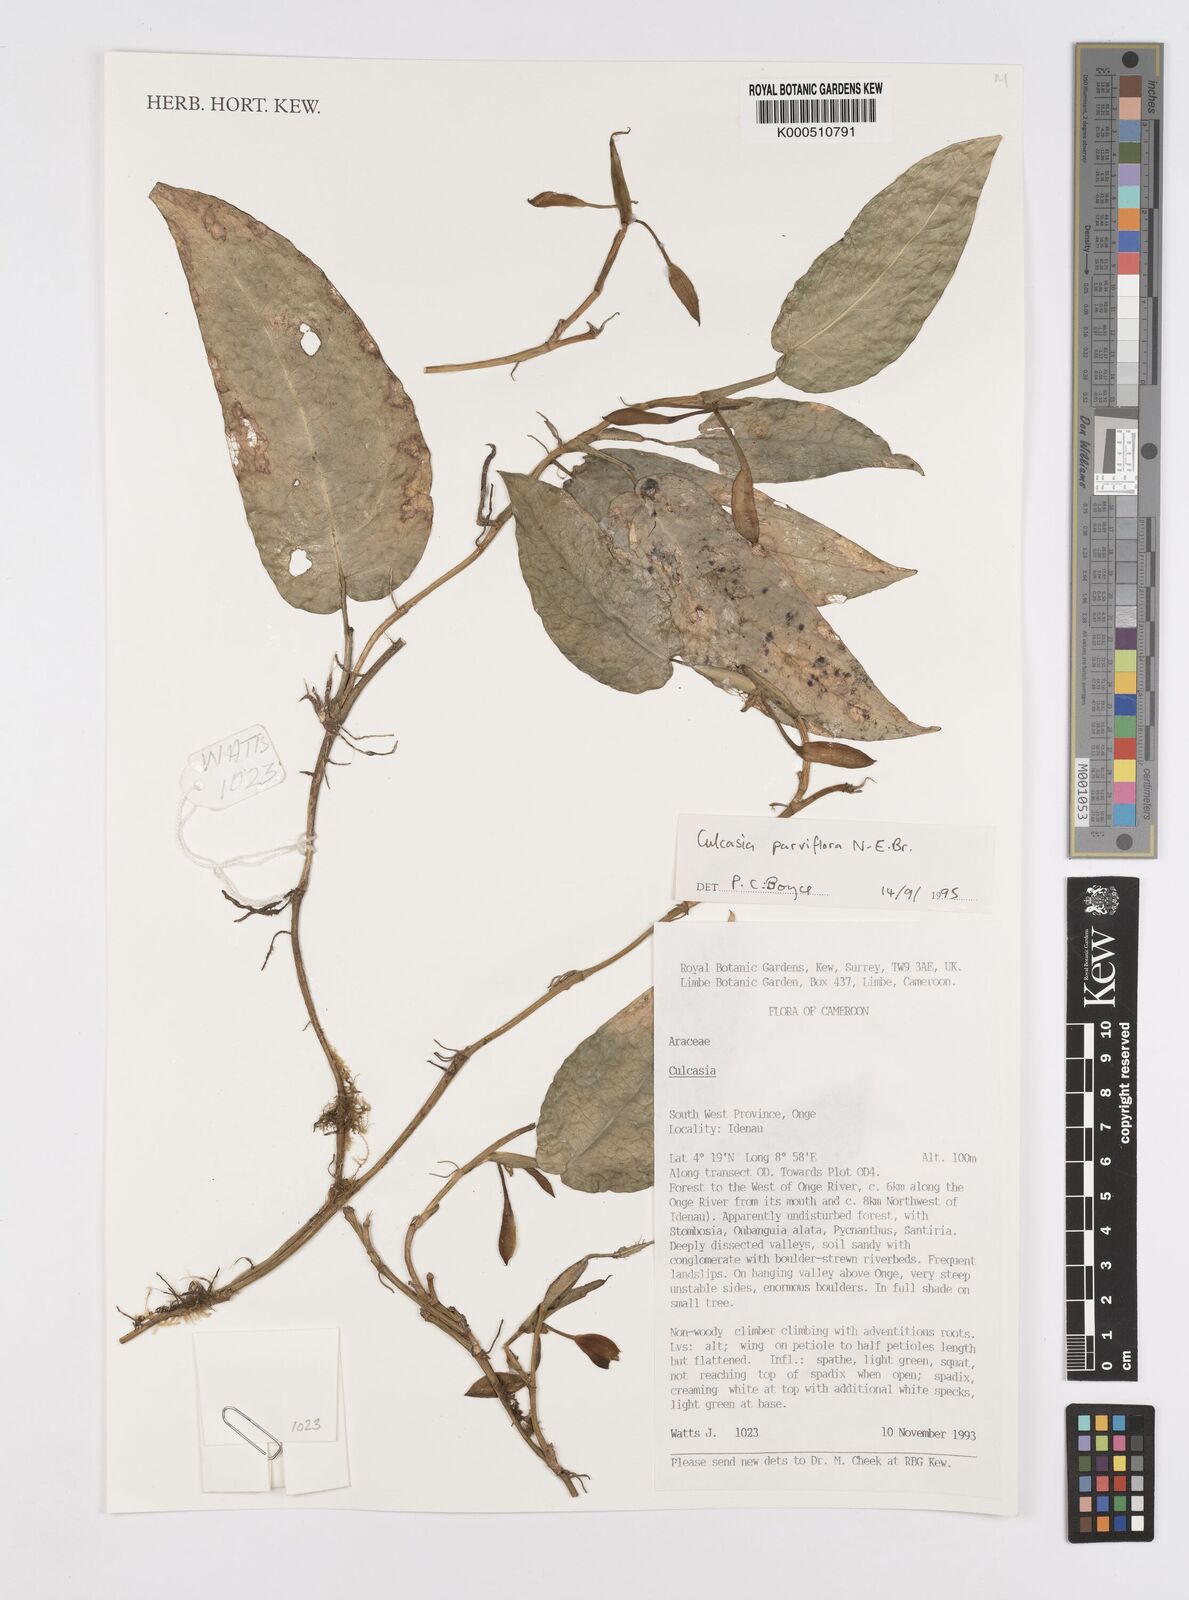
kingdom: Plantae
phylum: Tracheophyta
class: Liliopsida
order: Alismatales
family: Araceae
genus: Culcasia
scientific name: Culcasia parviflora
